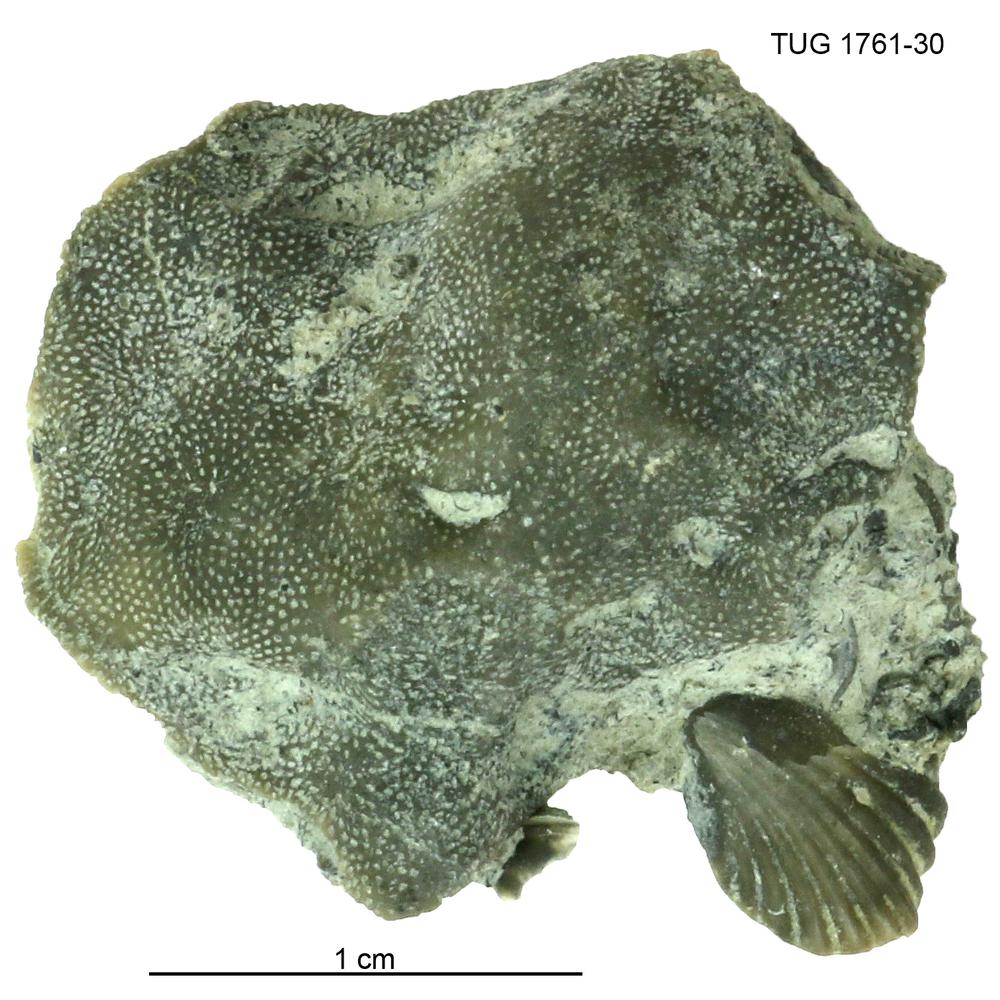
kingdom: Animalia
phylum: Bryozoa
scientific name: Bryozoa
